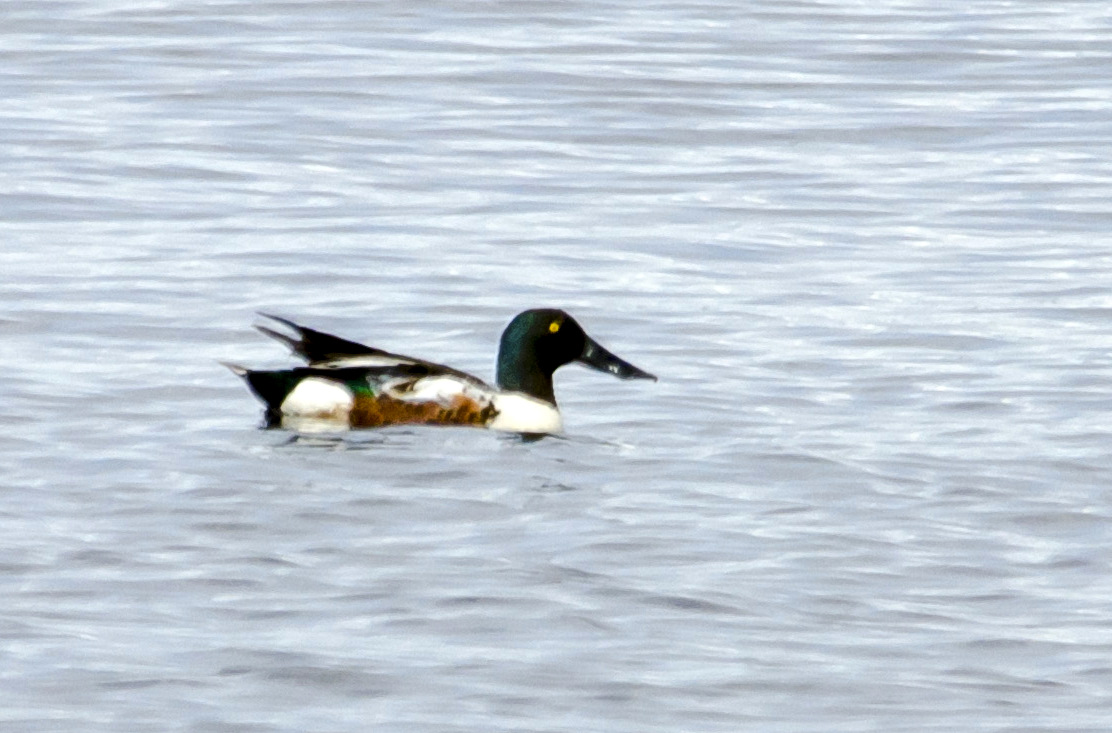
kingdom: Animalia
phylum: Chordata
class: Aves
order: Anseriformes
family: Anatidae
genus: Spatula
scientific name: Spatula clypeata
